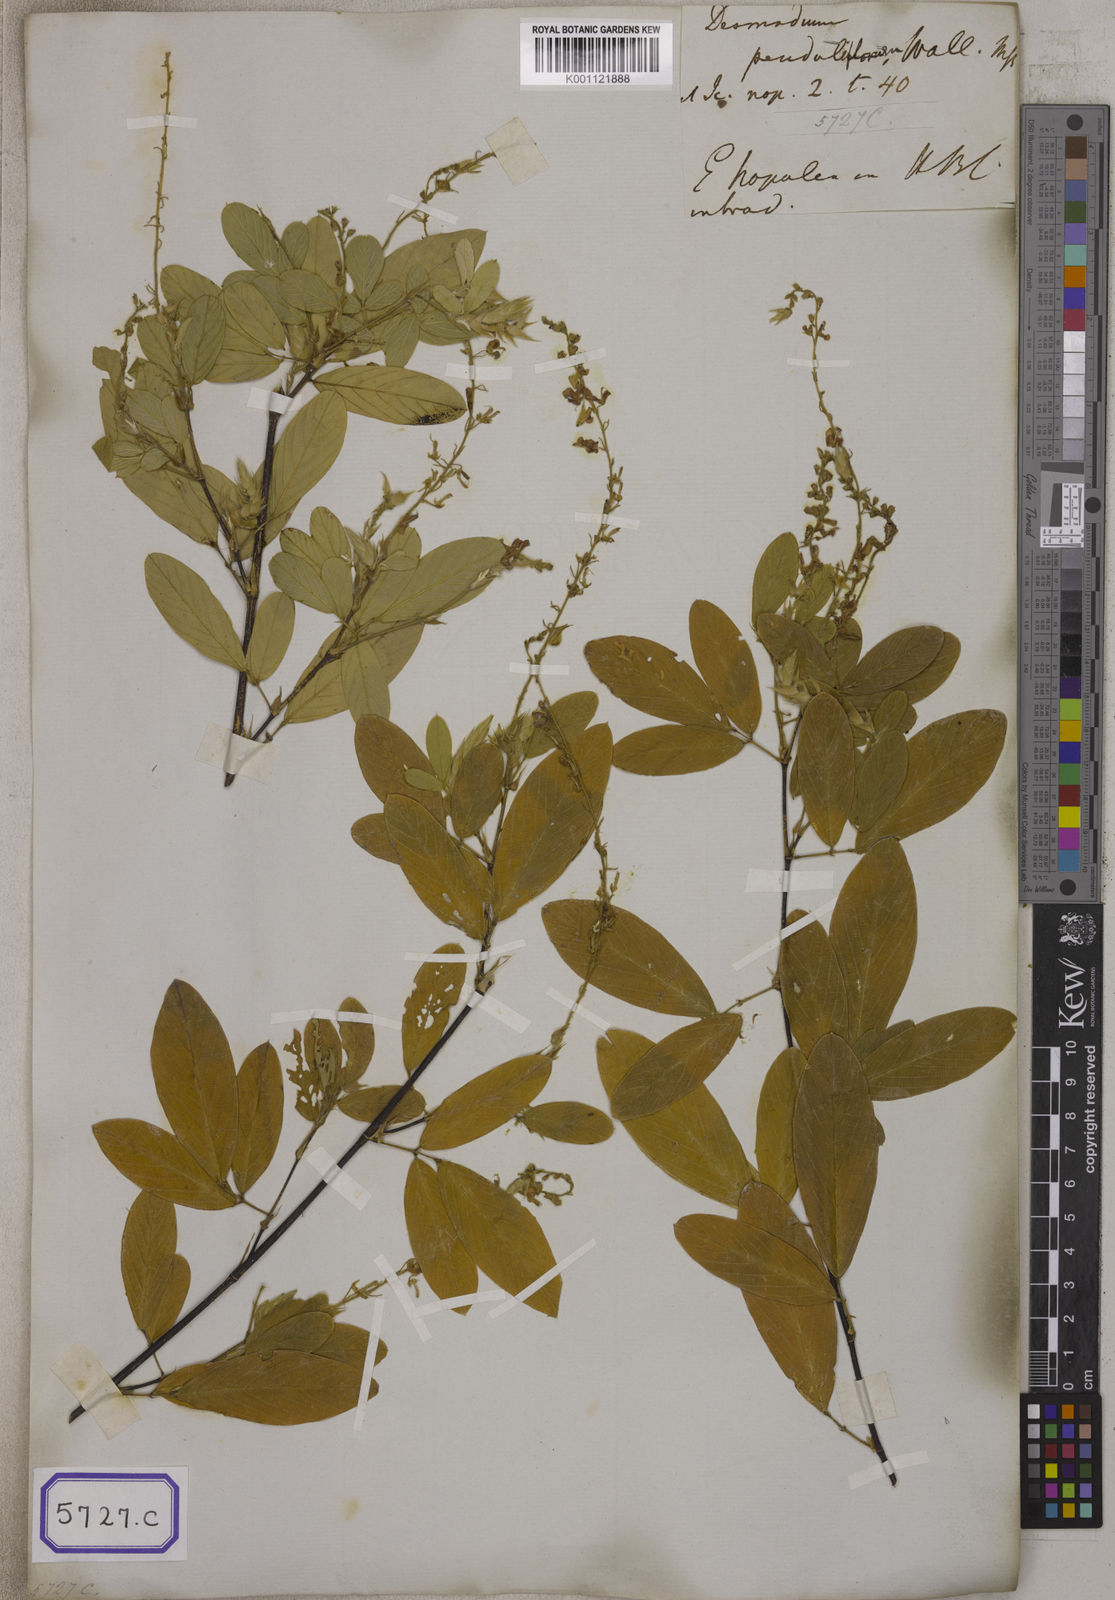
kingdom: Plantae
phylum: Tracheophyta
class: Magnoliopsida
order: Fabales
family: Fabaceae
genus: Tateishia
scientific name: Tateishia concinna
